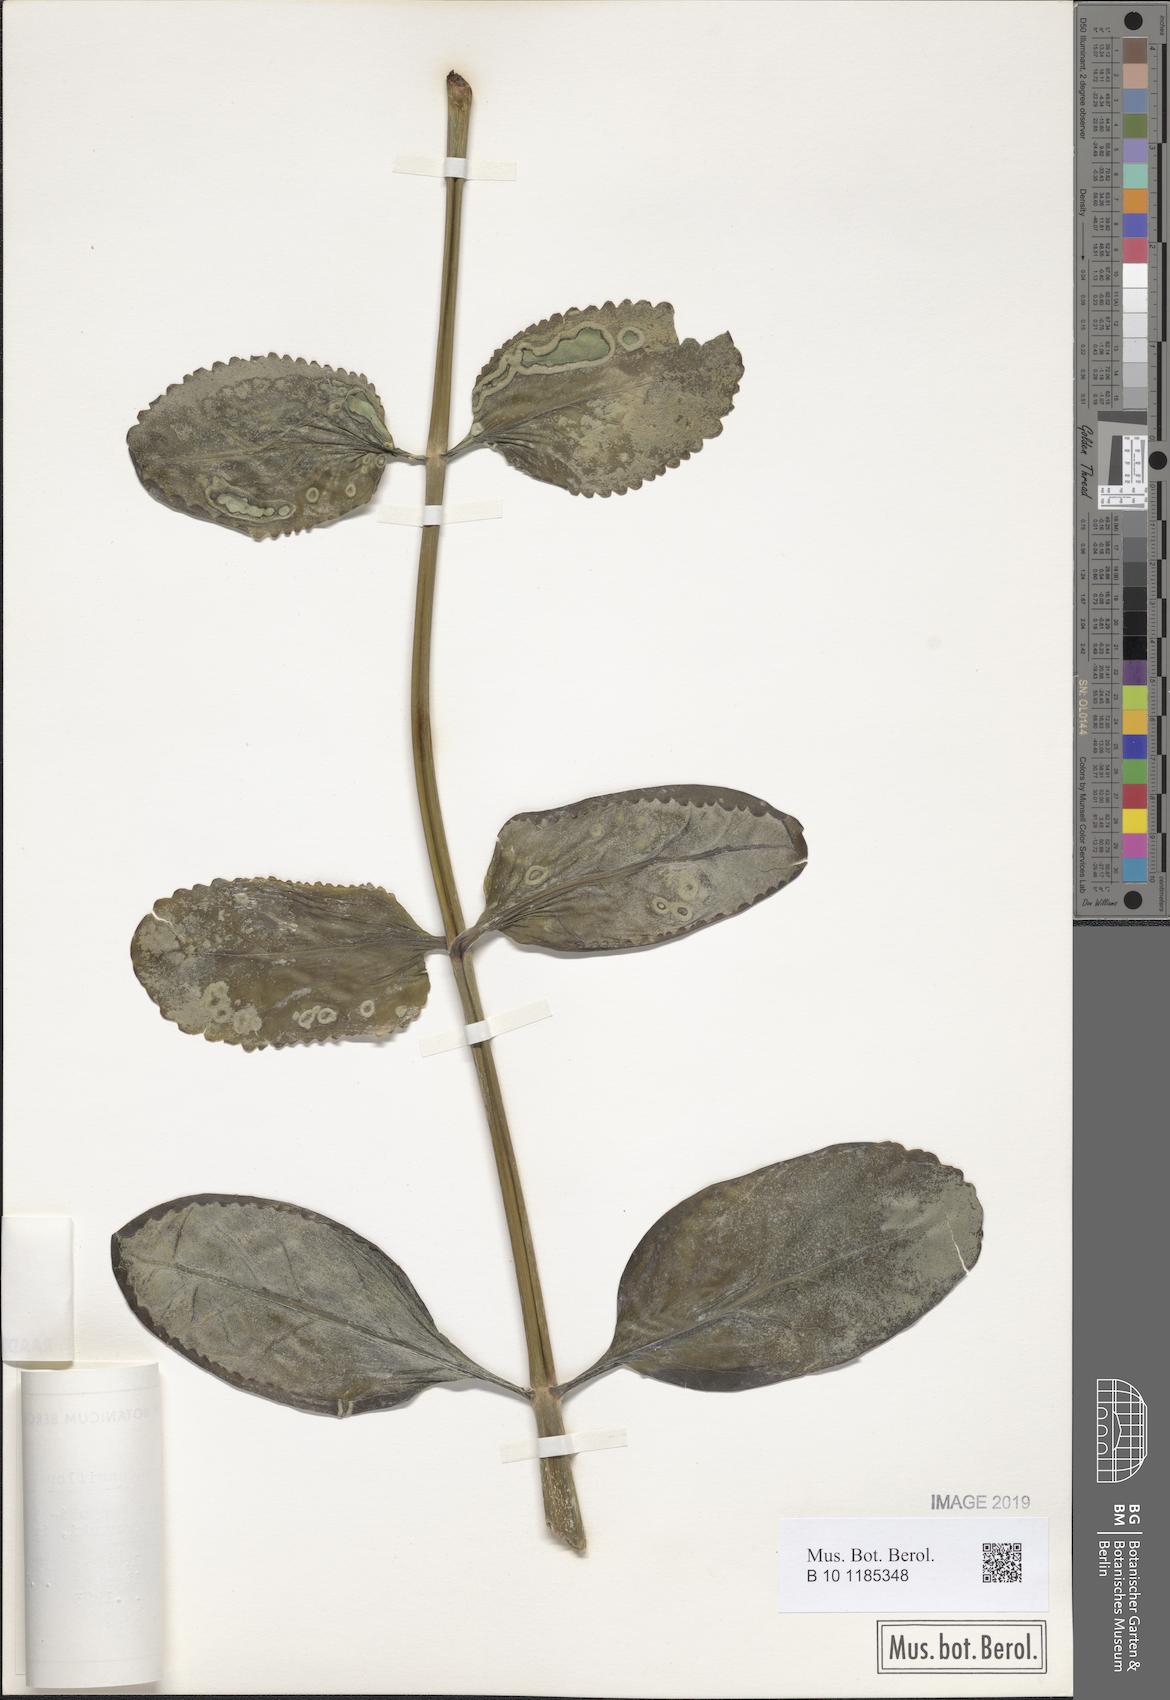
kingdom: Plantae
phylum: Tracheophyta
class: Magnoliopsida
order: Saxifragales
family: Crassulaceae
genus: Kalanchoe
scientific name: Kalanchoe densiflora
